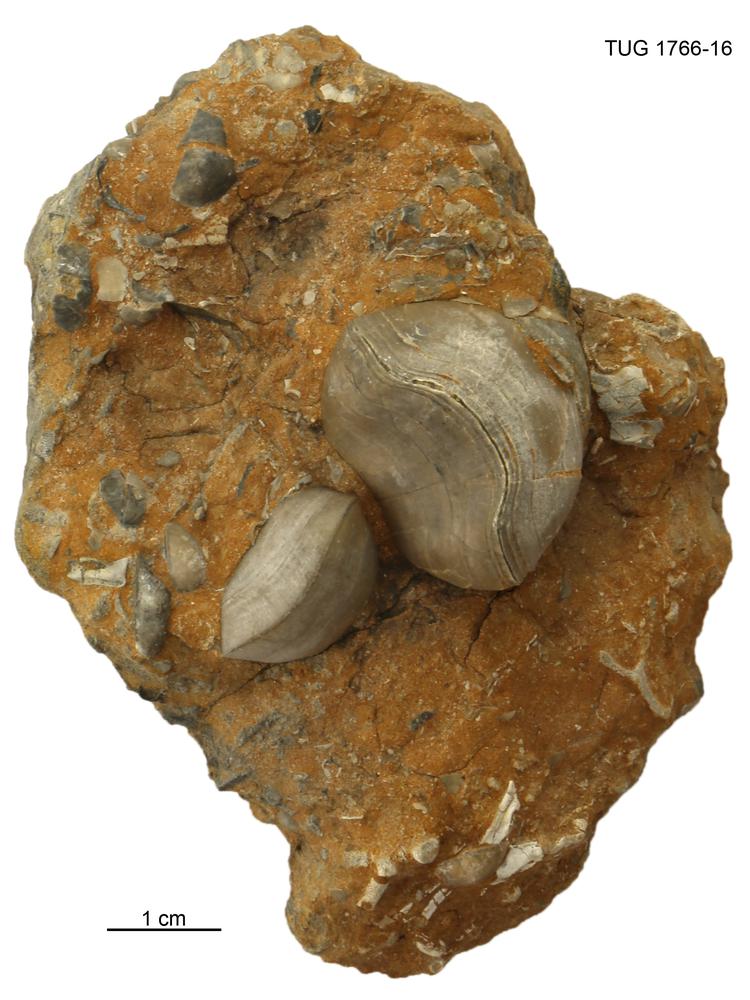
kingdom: Animalia
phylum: Brachiopoda
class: Rhynchonellata
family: Porambonitidae
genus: Porambonites
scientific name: Porambonites
